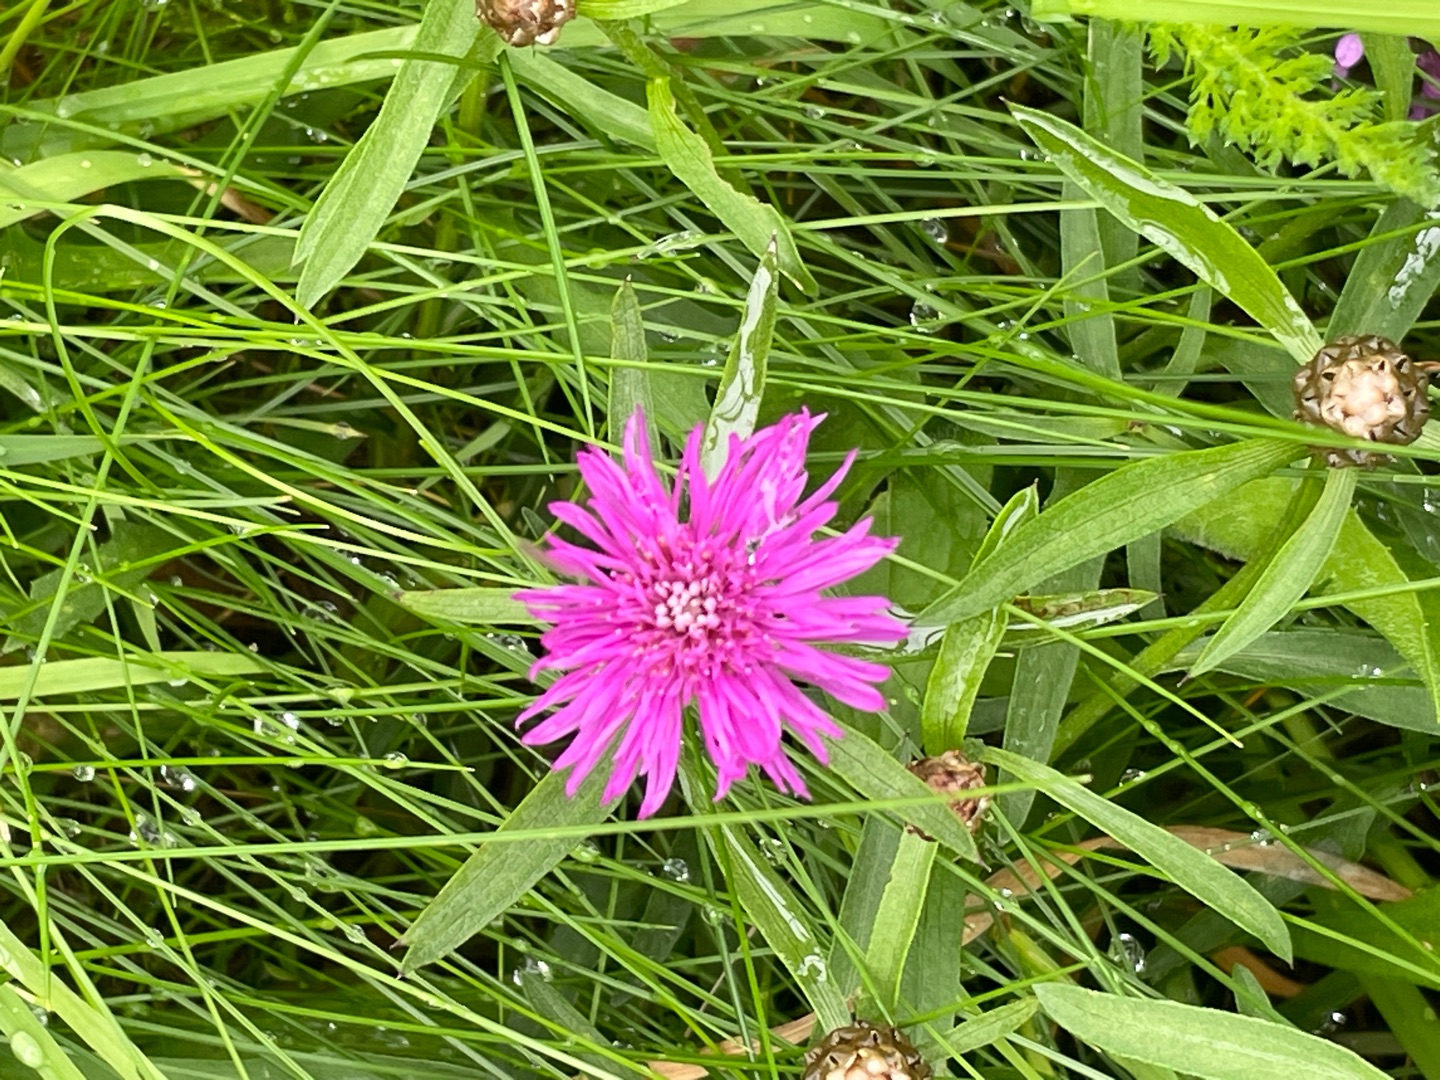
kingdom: Plantae
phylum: Tracheophyta
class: Magnoliopsida
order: Asterales
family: Asteraceae
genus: Centaurea
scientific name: Centaurea jacea
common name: Almindelig knopurt
